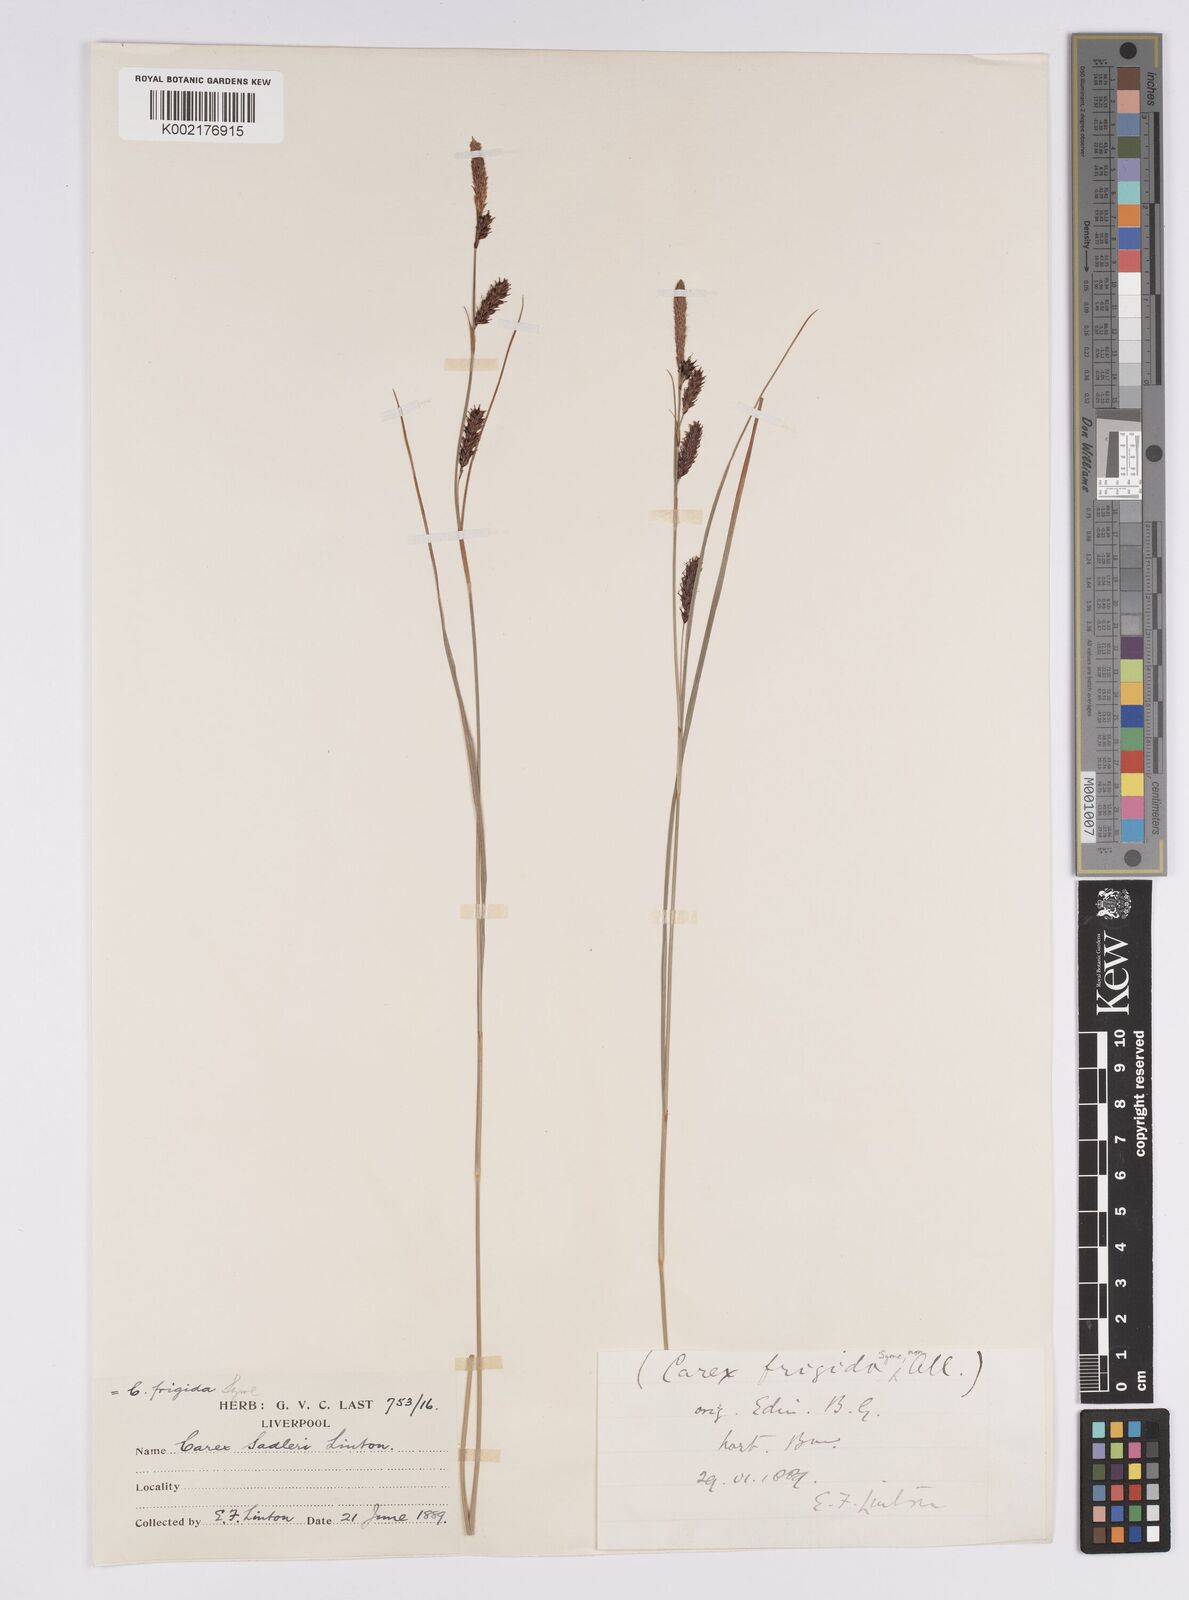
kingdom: Plantae
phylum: Tracheophyta
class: Liliopsida
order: Poales
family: Cyperaceae
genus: Carex
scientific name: Carex frigida
